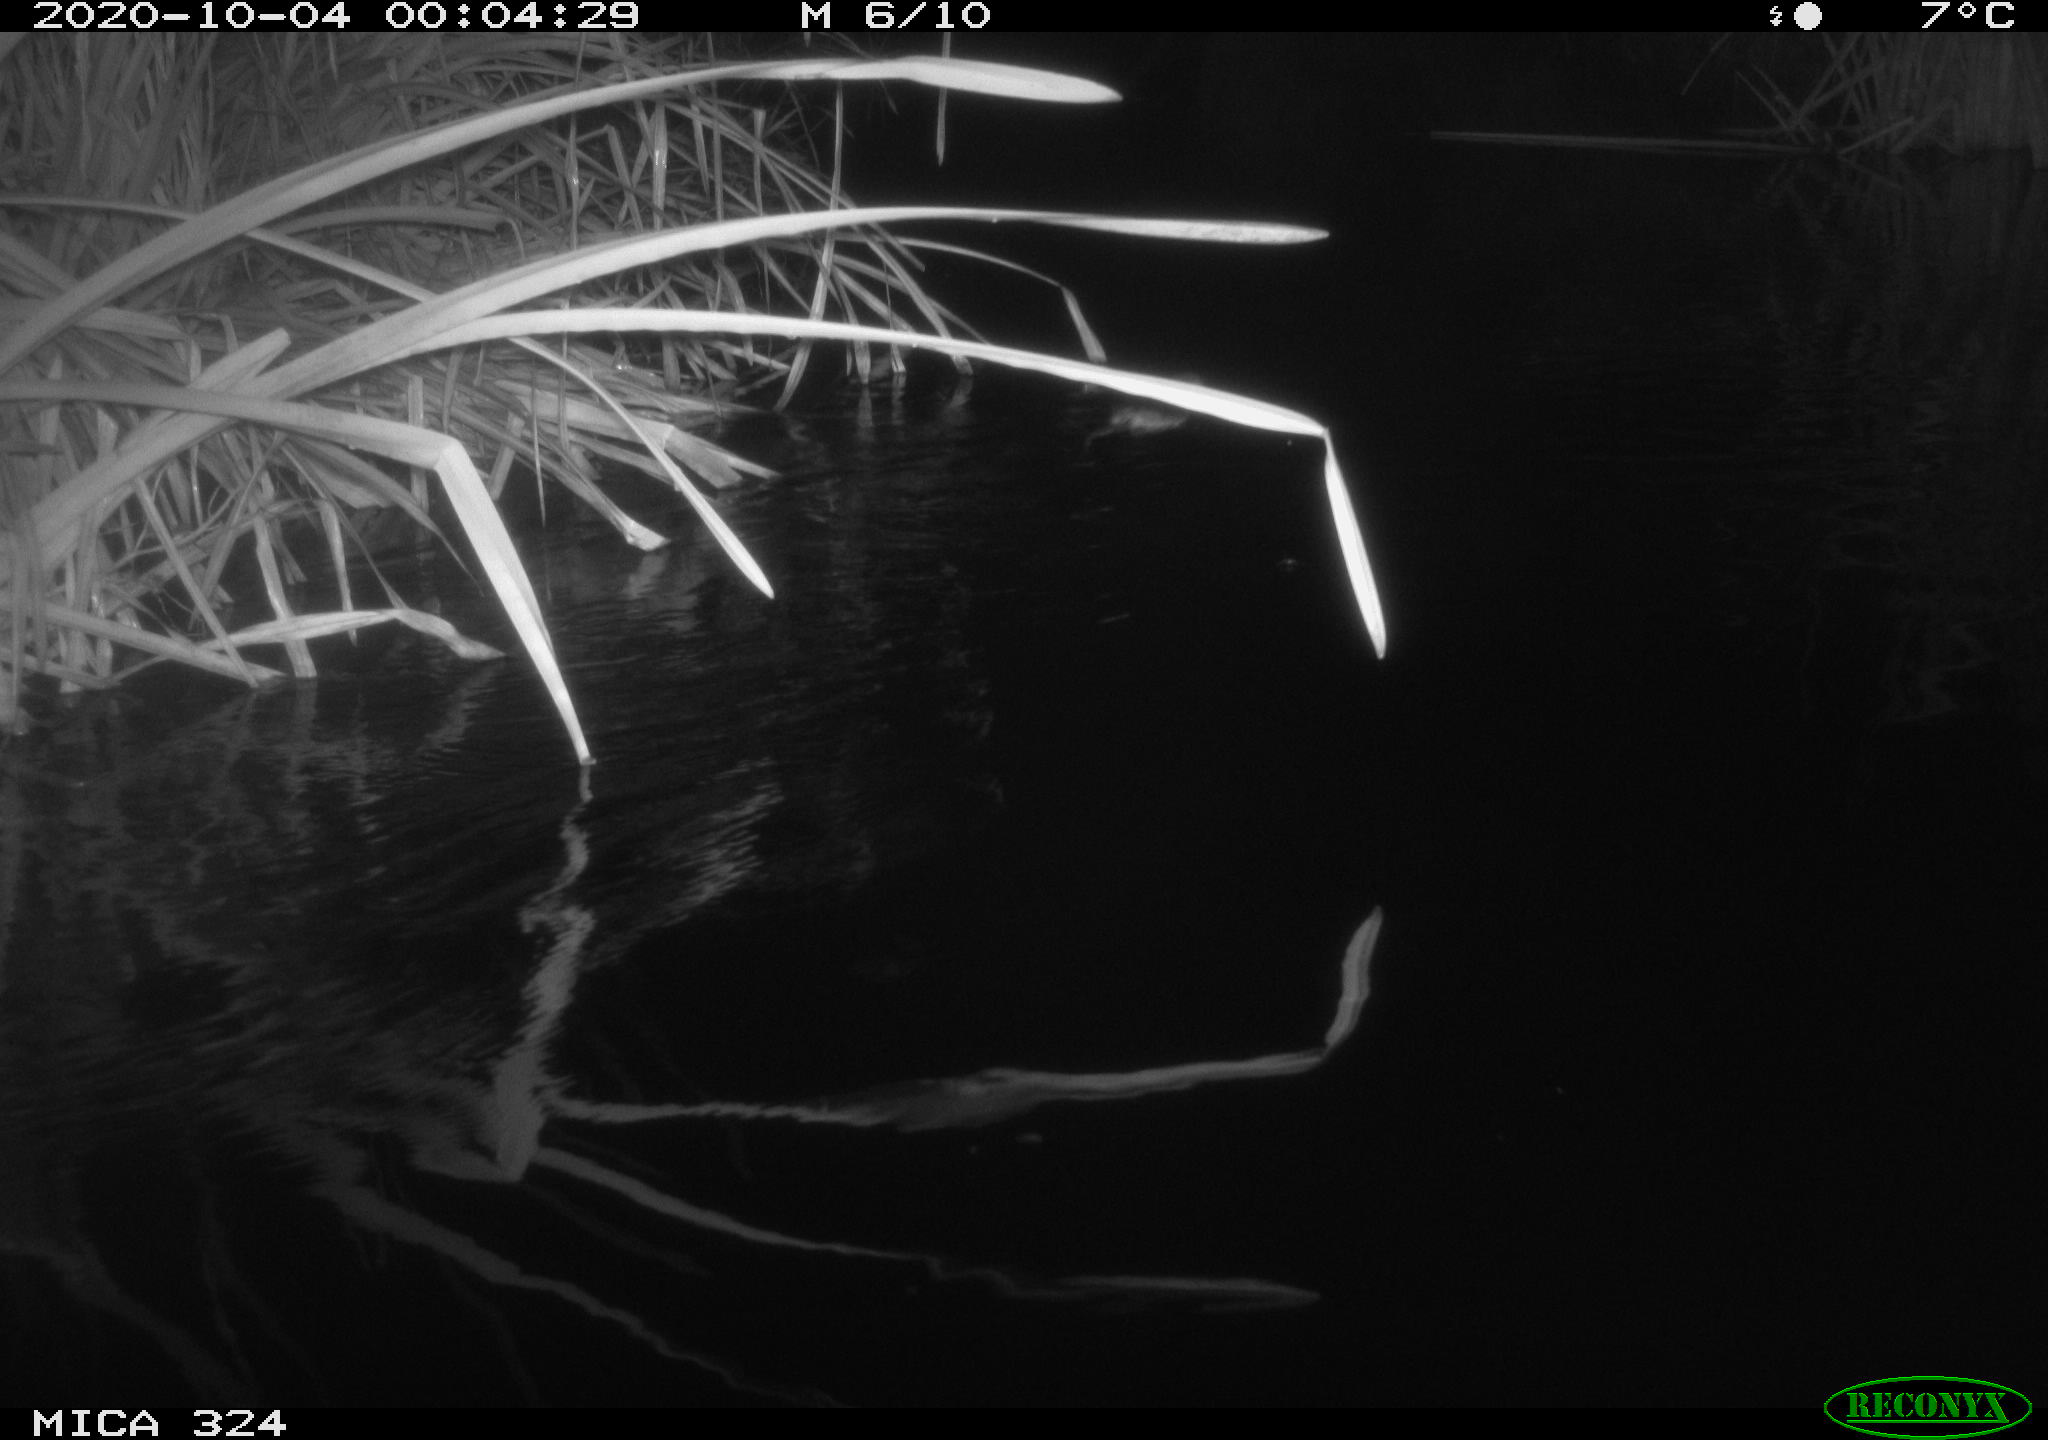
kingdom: Animalia
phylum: Chordata
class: Mammalia
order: Rodentia
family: Cricetidae
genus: Ondatra
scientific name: Ondatra zibethicus
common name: Muskrat
